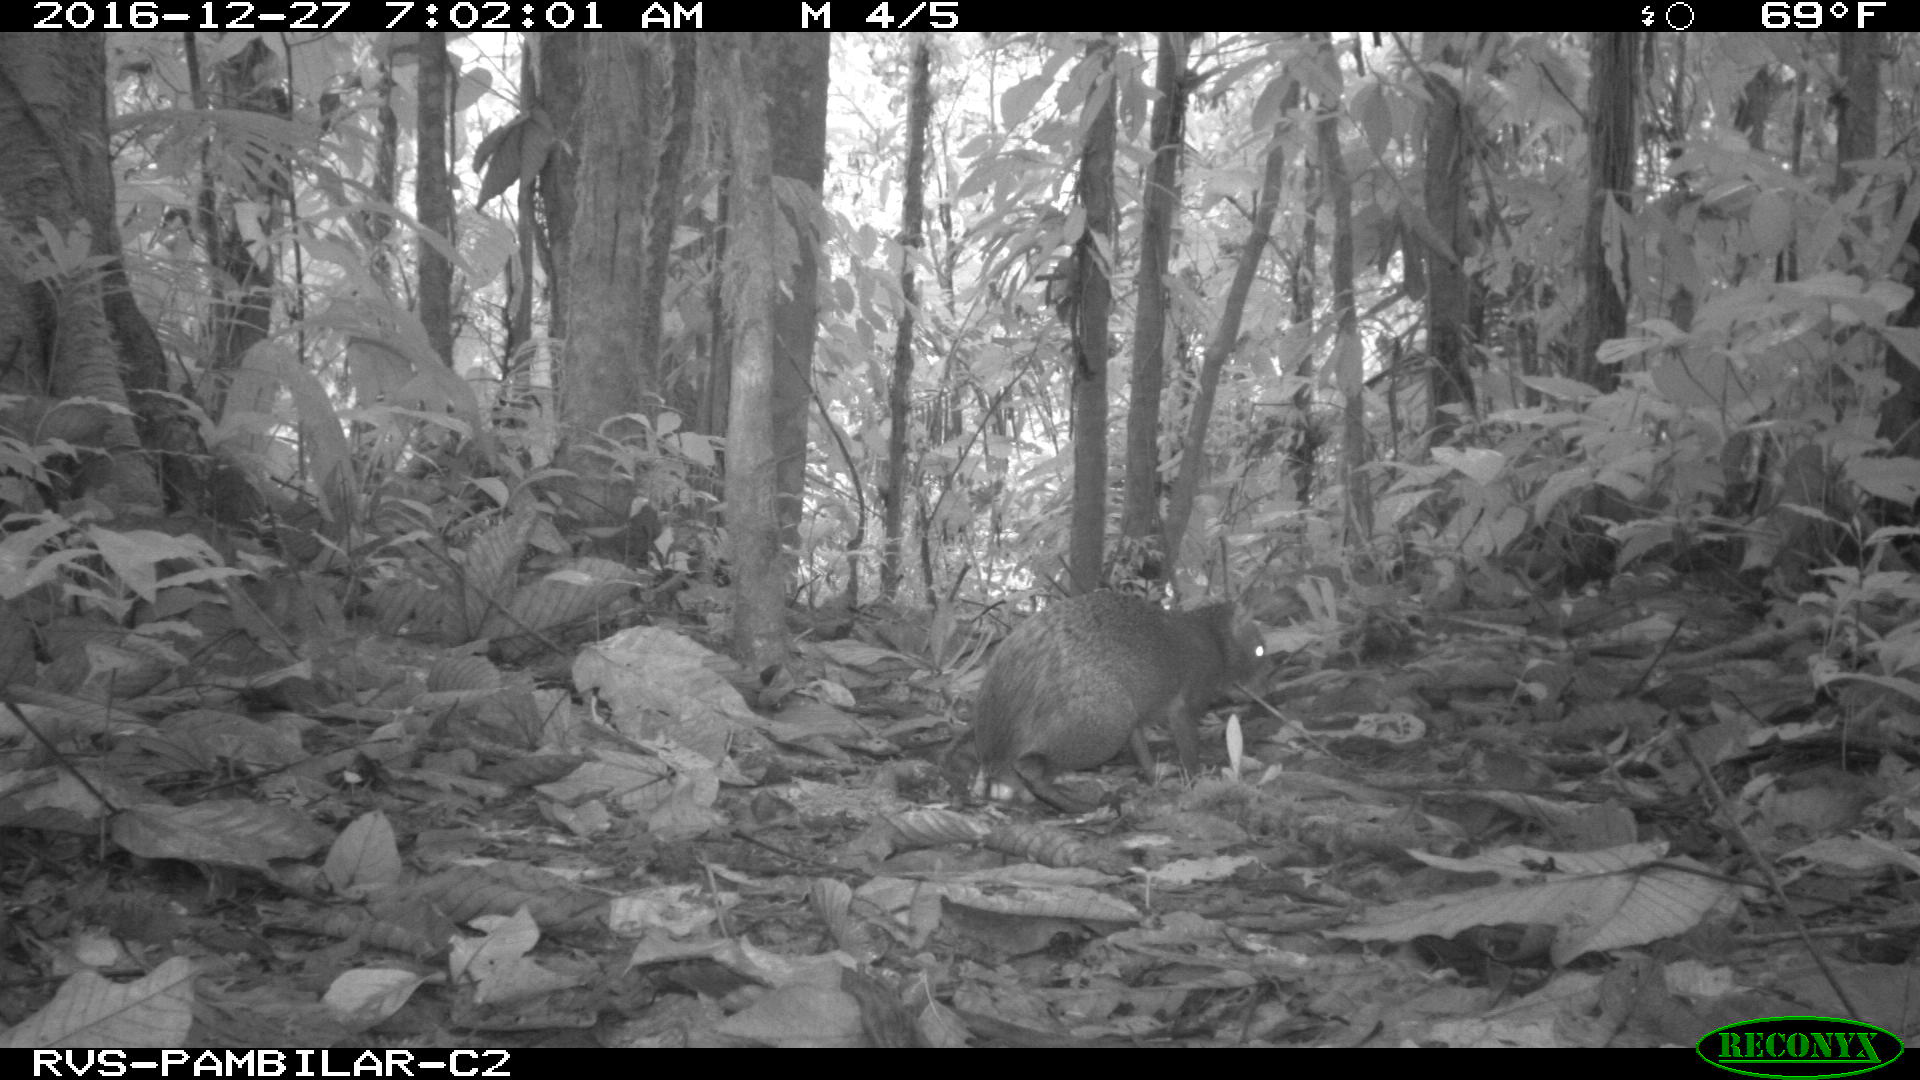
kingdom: Animalia
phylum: Chordata
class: Mammalia
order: Rodentia
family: Dasyproctidae
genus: Dasyprocta
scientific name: Dasyprocta punctata
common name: Central american agouti
